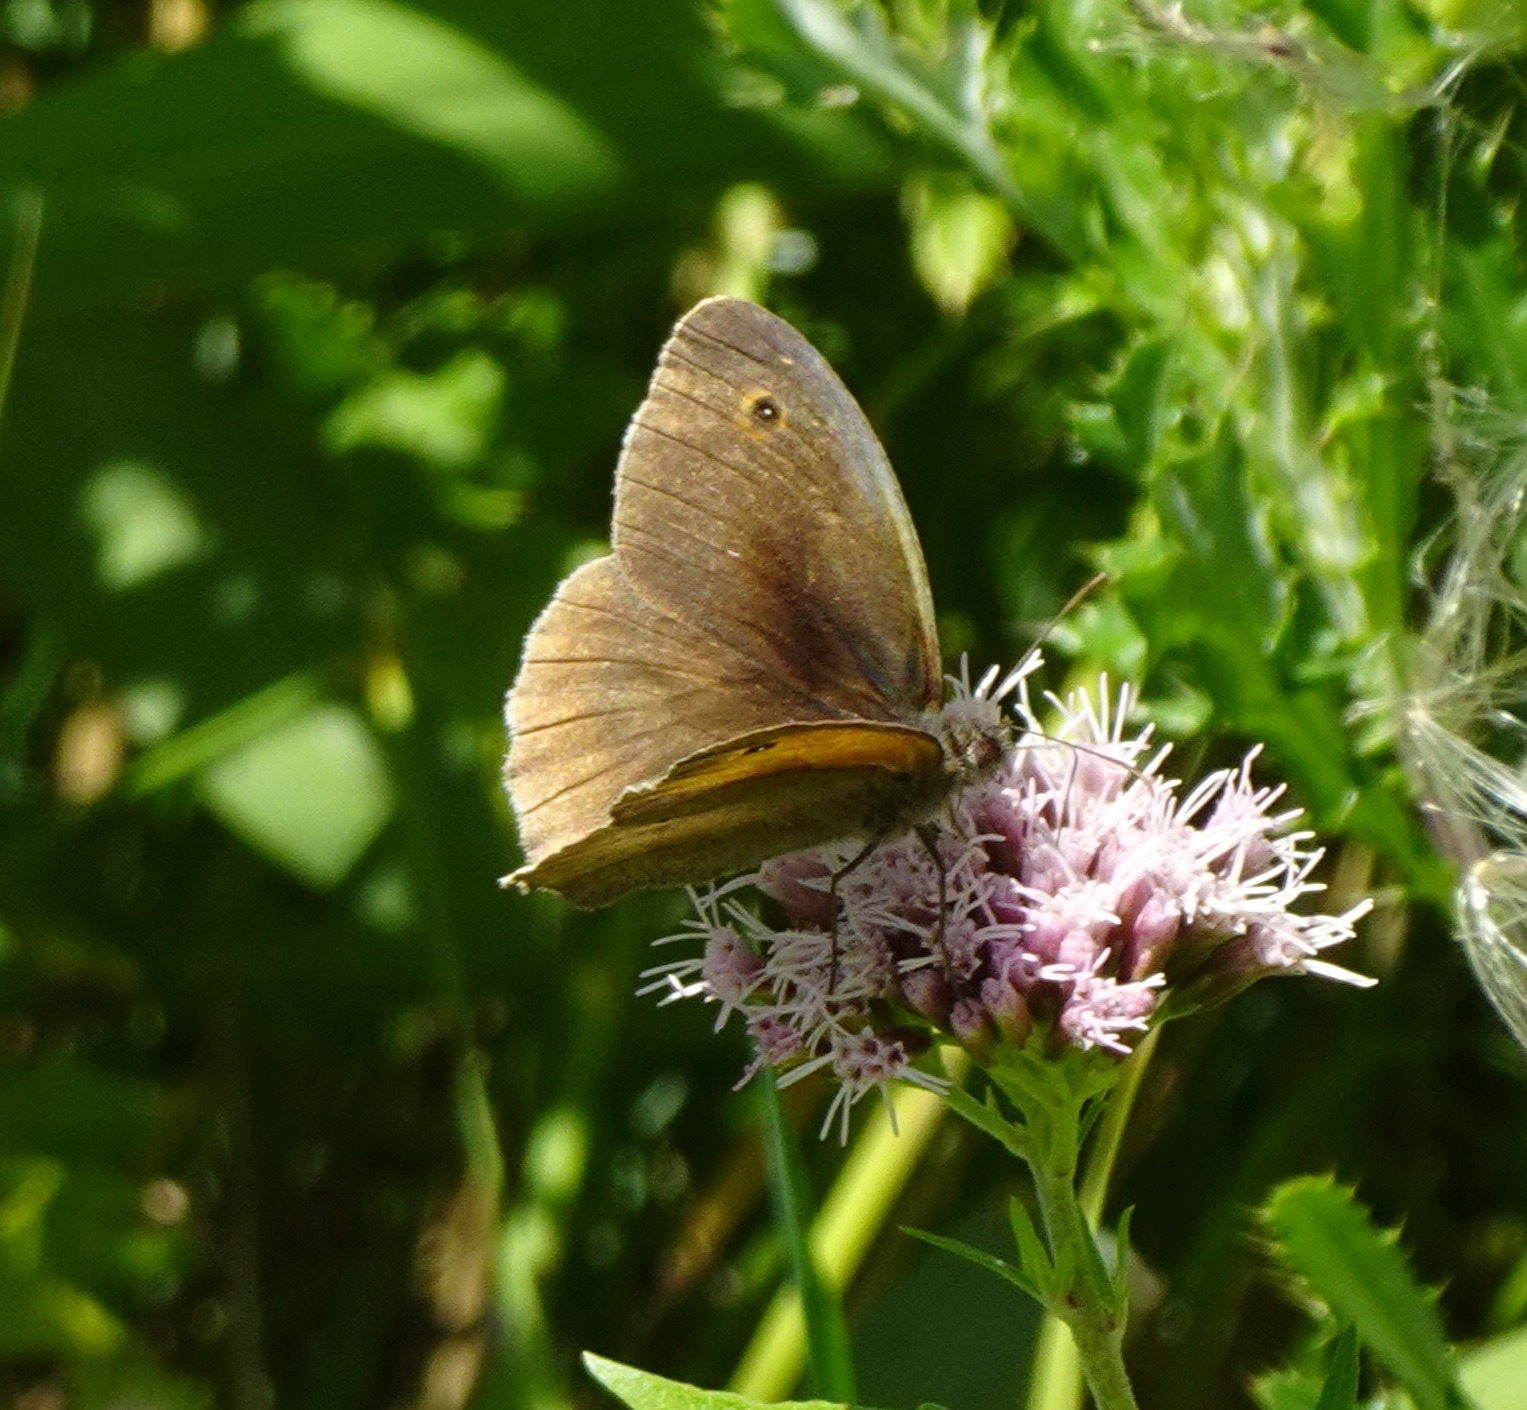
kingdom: Animalia
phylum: Arthropoda
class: Insecta
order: Lepidoptera
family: Nymphalidae
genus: Maniola
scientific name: Maniola jurtina
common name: Græsrandøje
